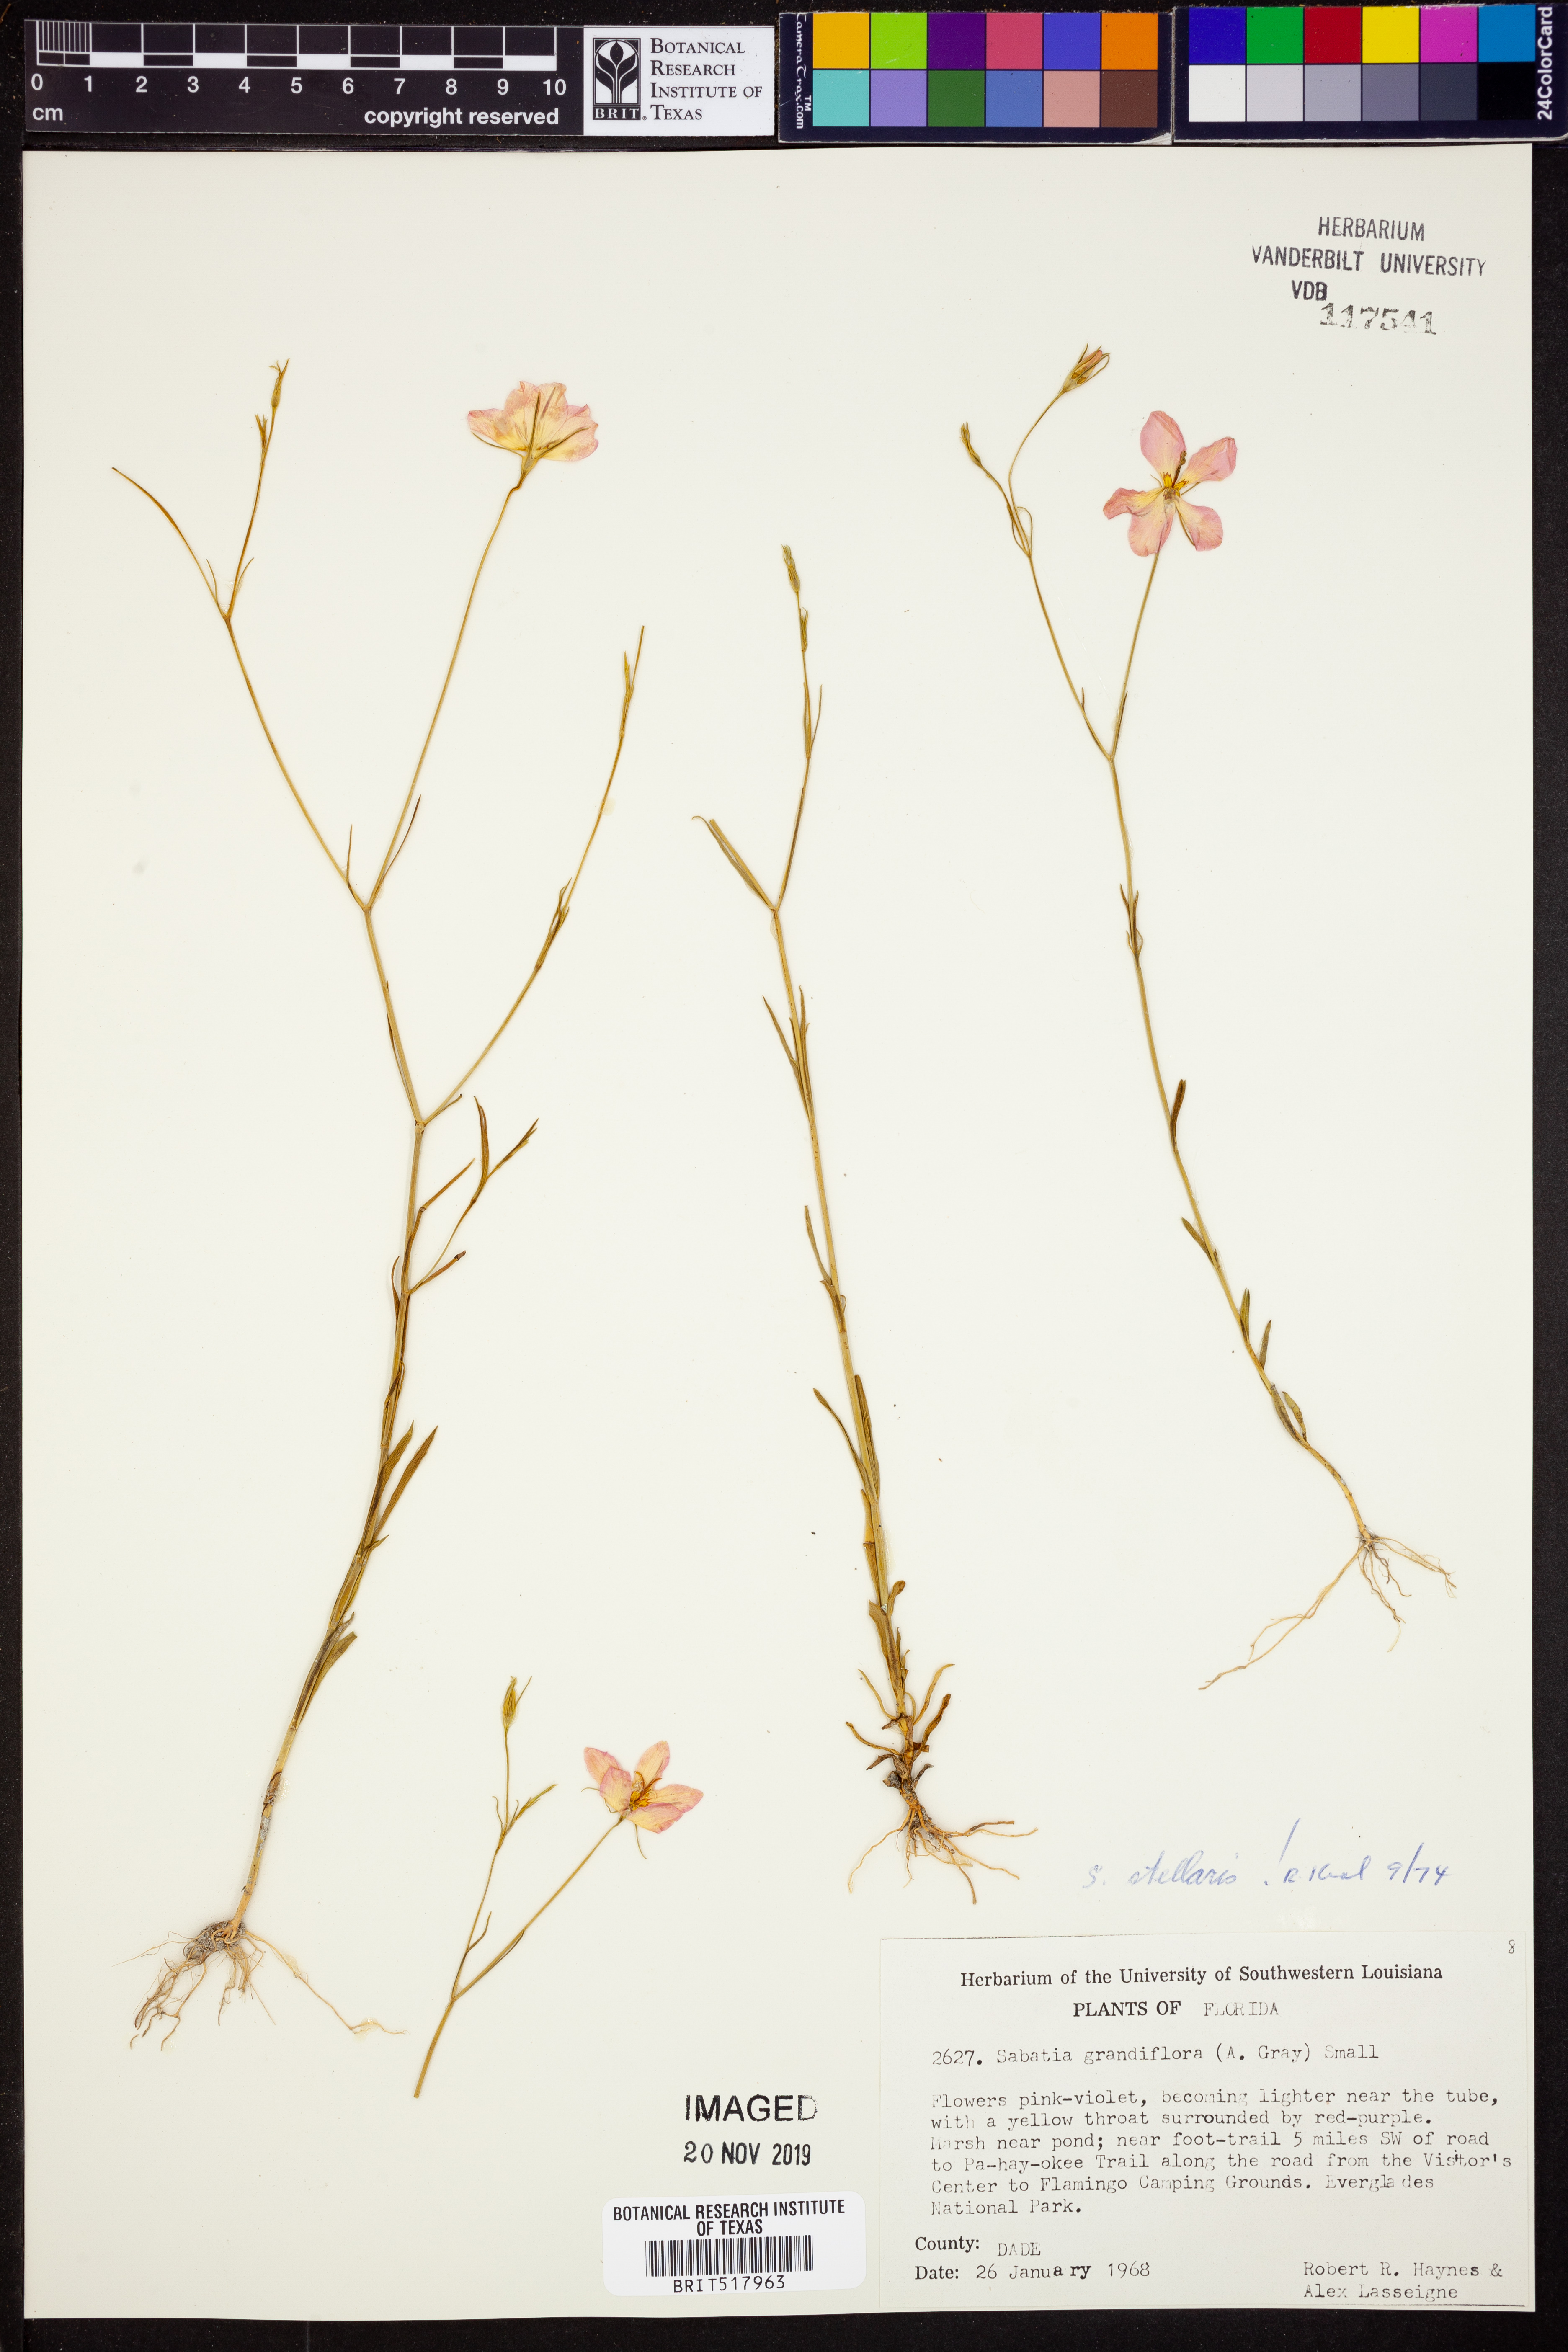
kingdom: Plantae
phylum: Tracheophyta
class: Magnoliopsida
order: Gentianales
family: Gentianaceae
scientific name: Gentianaceae
